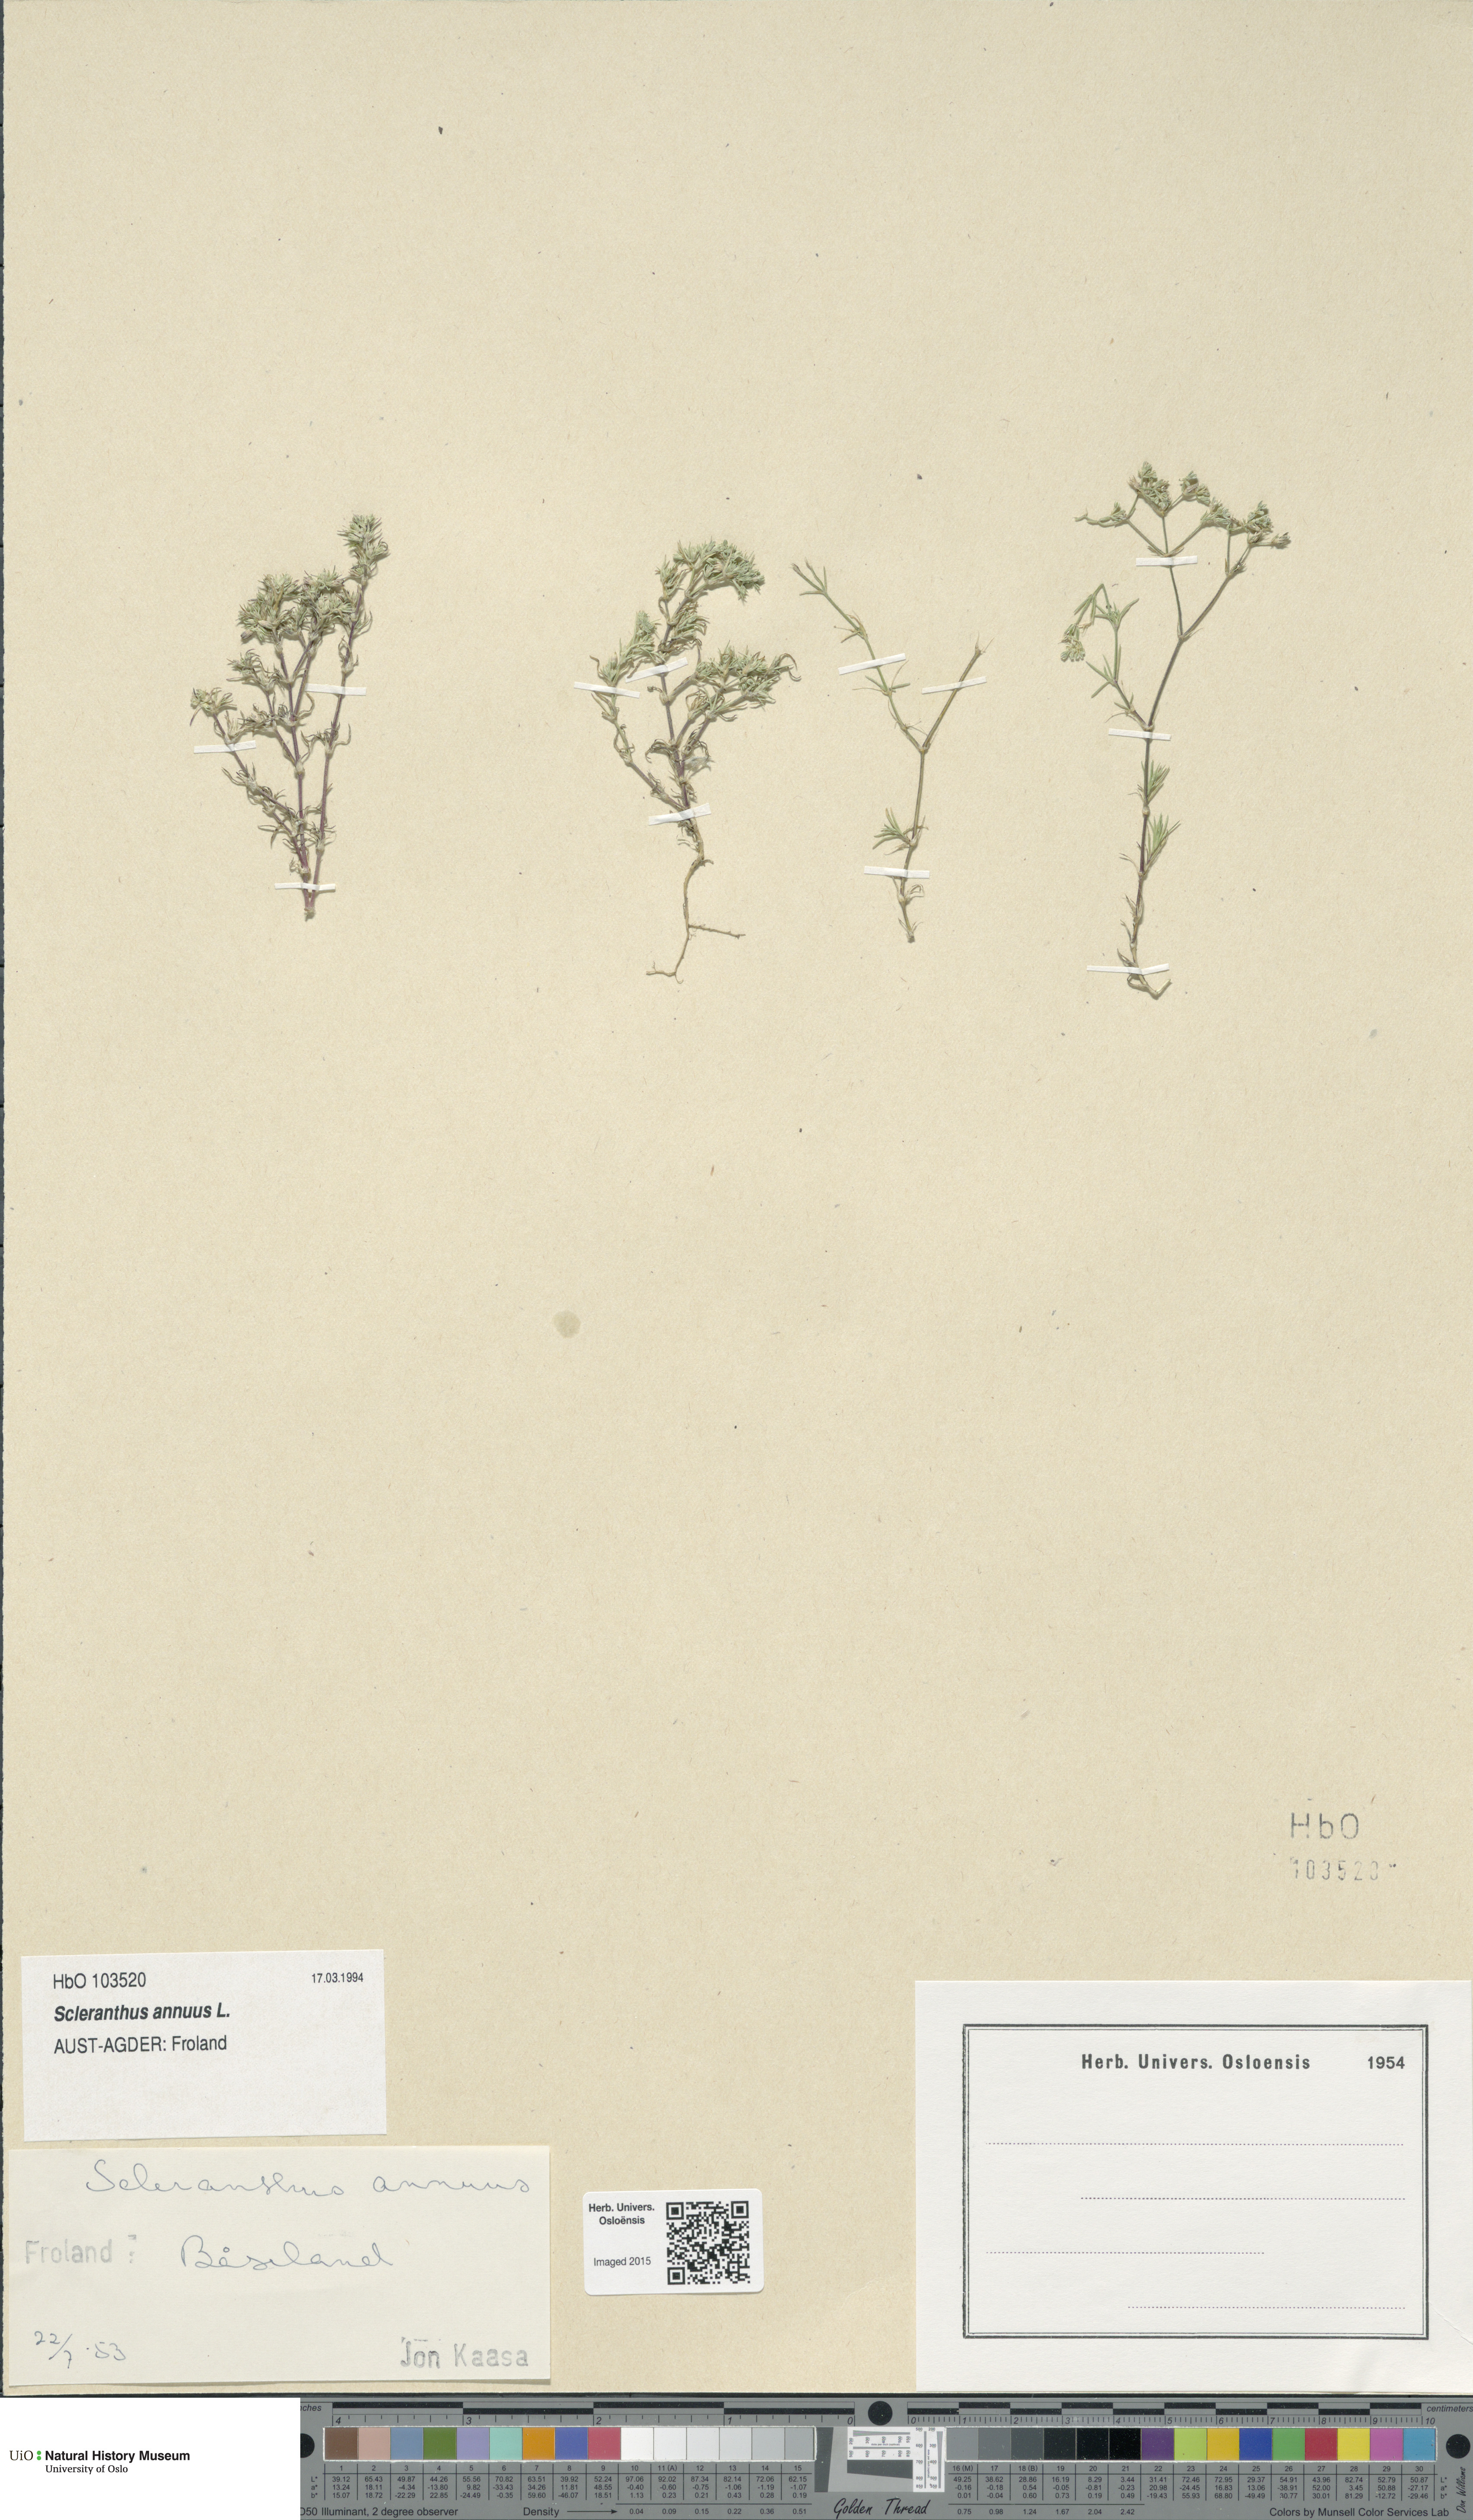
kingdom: Plantae
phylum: Tracheophyta
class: Magnoliopsida
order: Caryophyllales
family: Caryophyllaceae
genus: Scleranthus
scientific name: Scleranthus annuus
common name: Annual knawel
